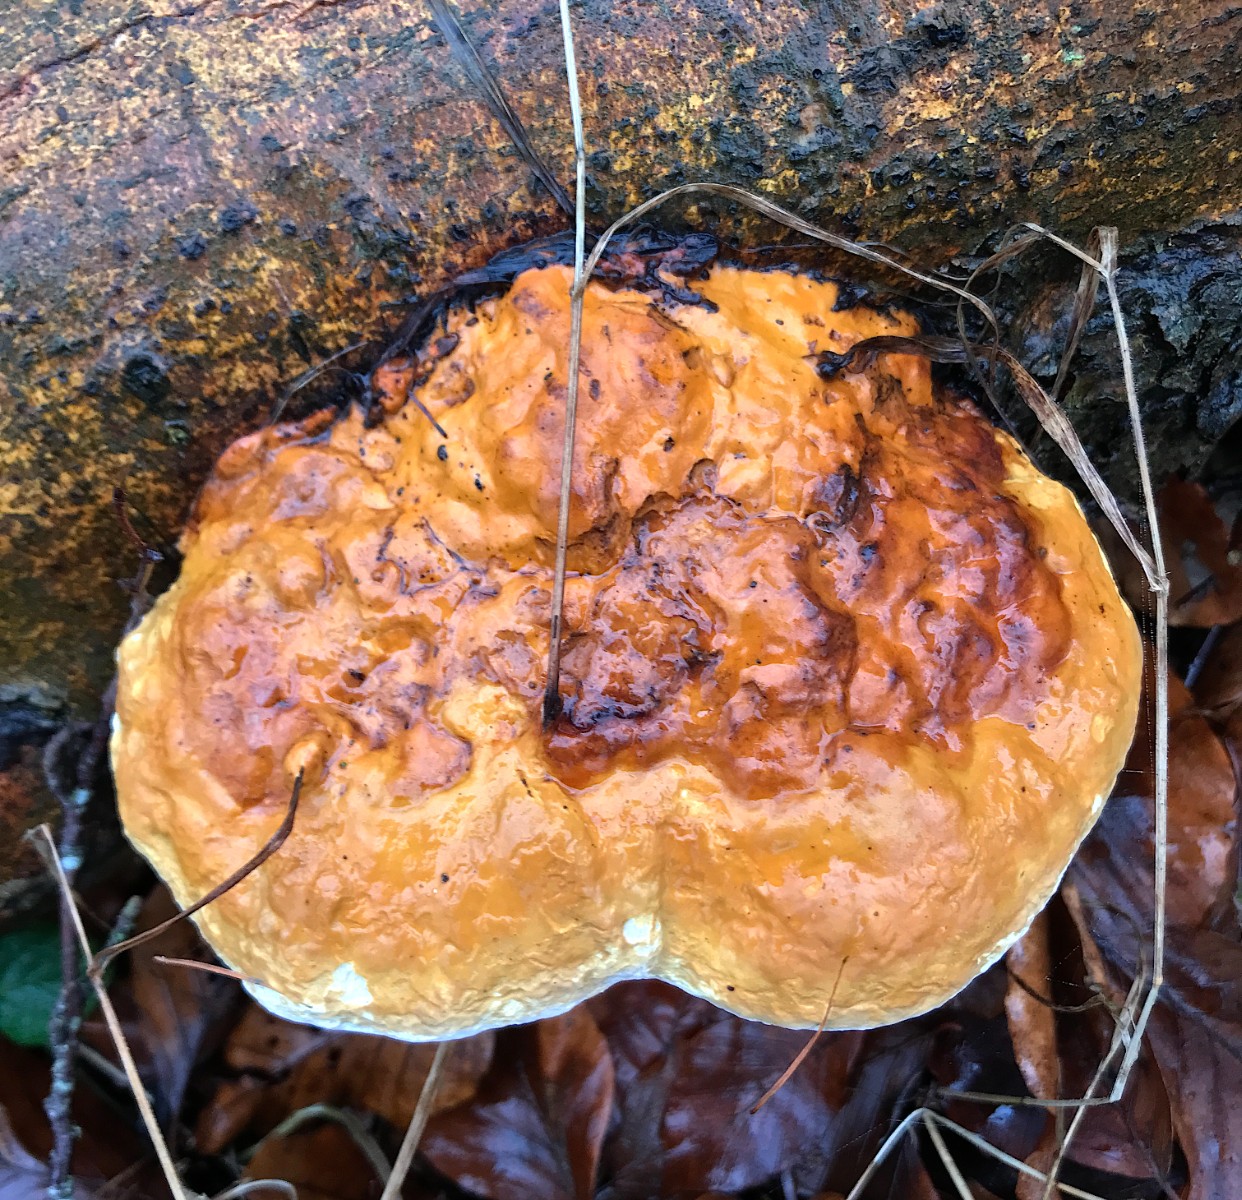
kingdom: Fungi
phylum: Basidiomycota
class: Agaricomycetes
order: Polyporales
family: Fomitopsidaceae
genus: Fomitopsis
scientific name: Fomitopsis pinicola
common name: randbæltet hovporesvamp
